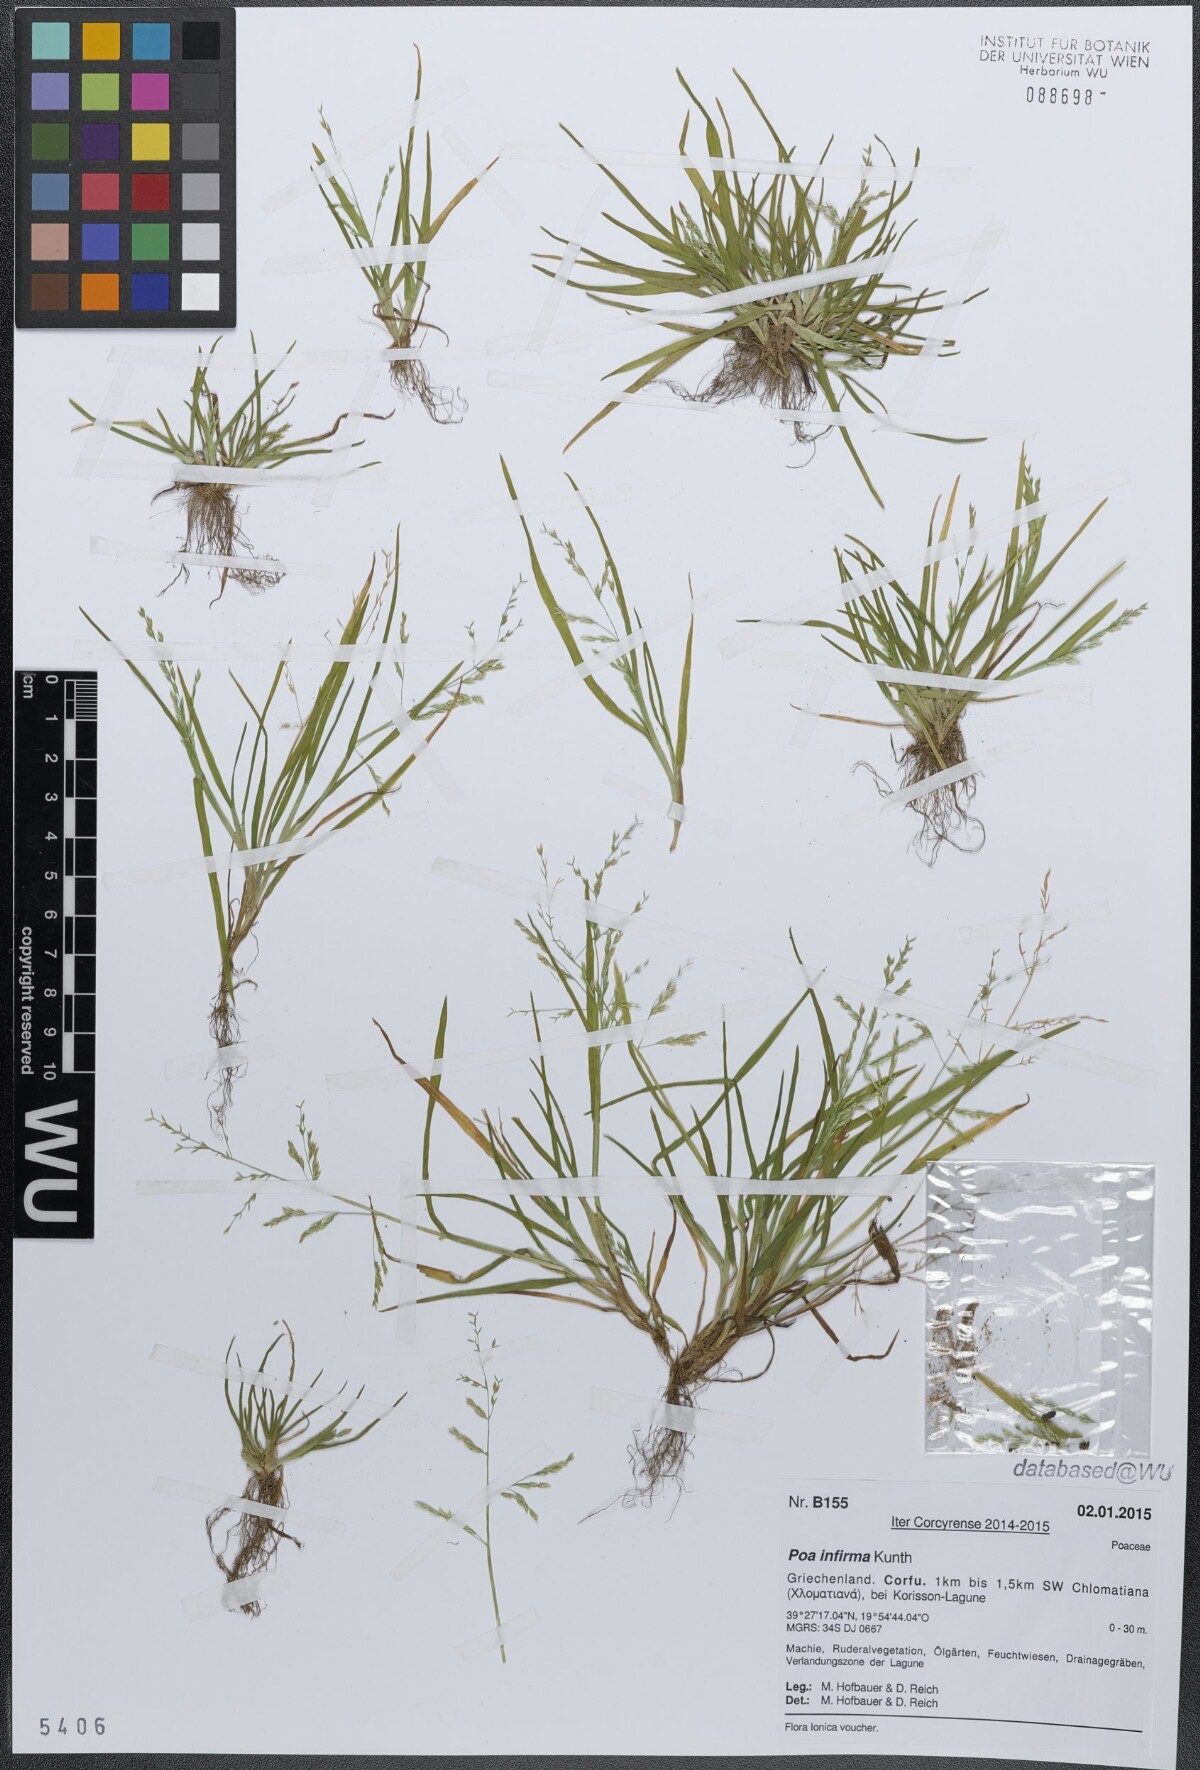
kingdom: Plantae
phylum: Tracheophyta
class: Liliopsida
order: Poales
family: Poaceae
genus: Poa
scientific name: Poa infirma
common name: Weak bluegrass
